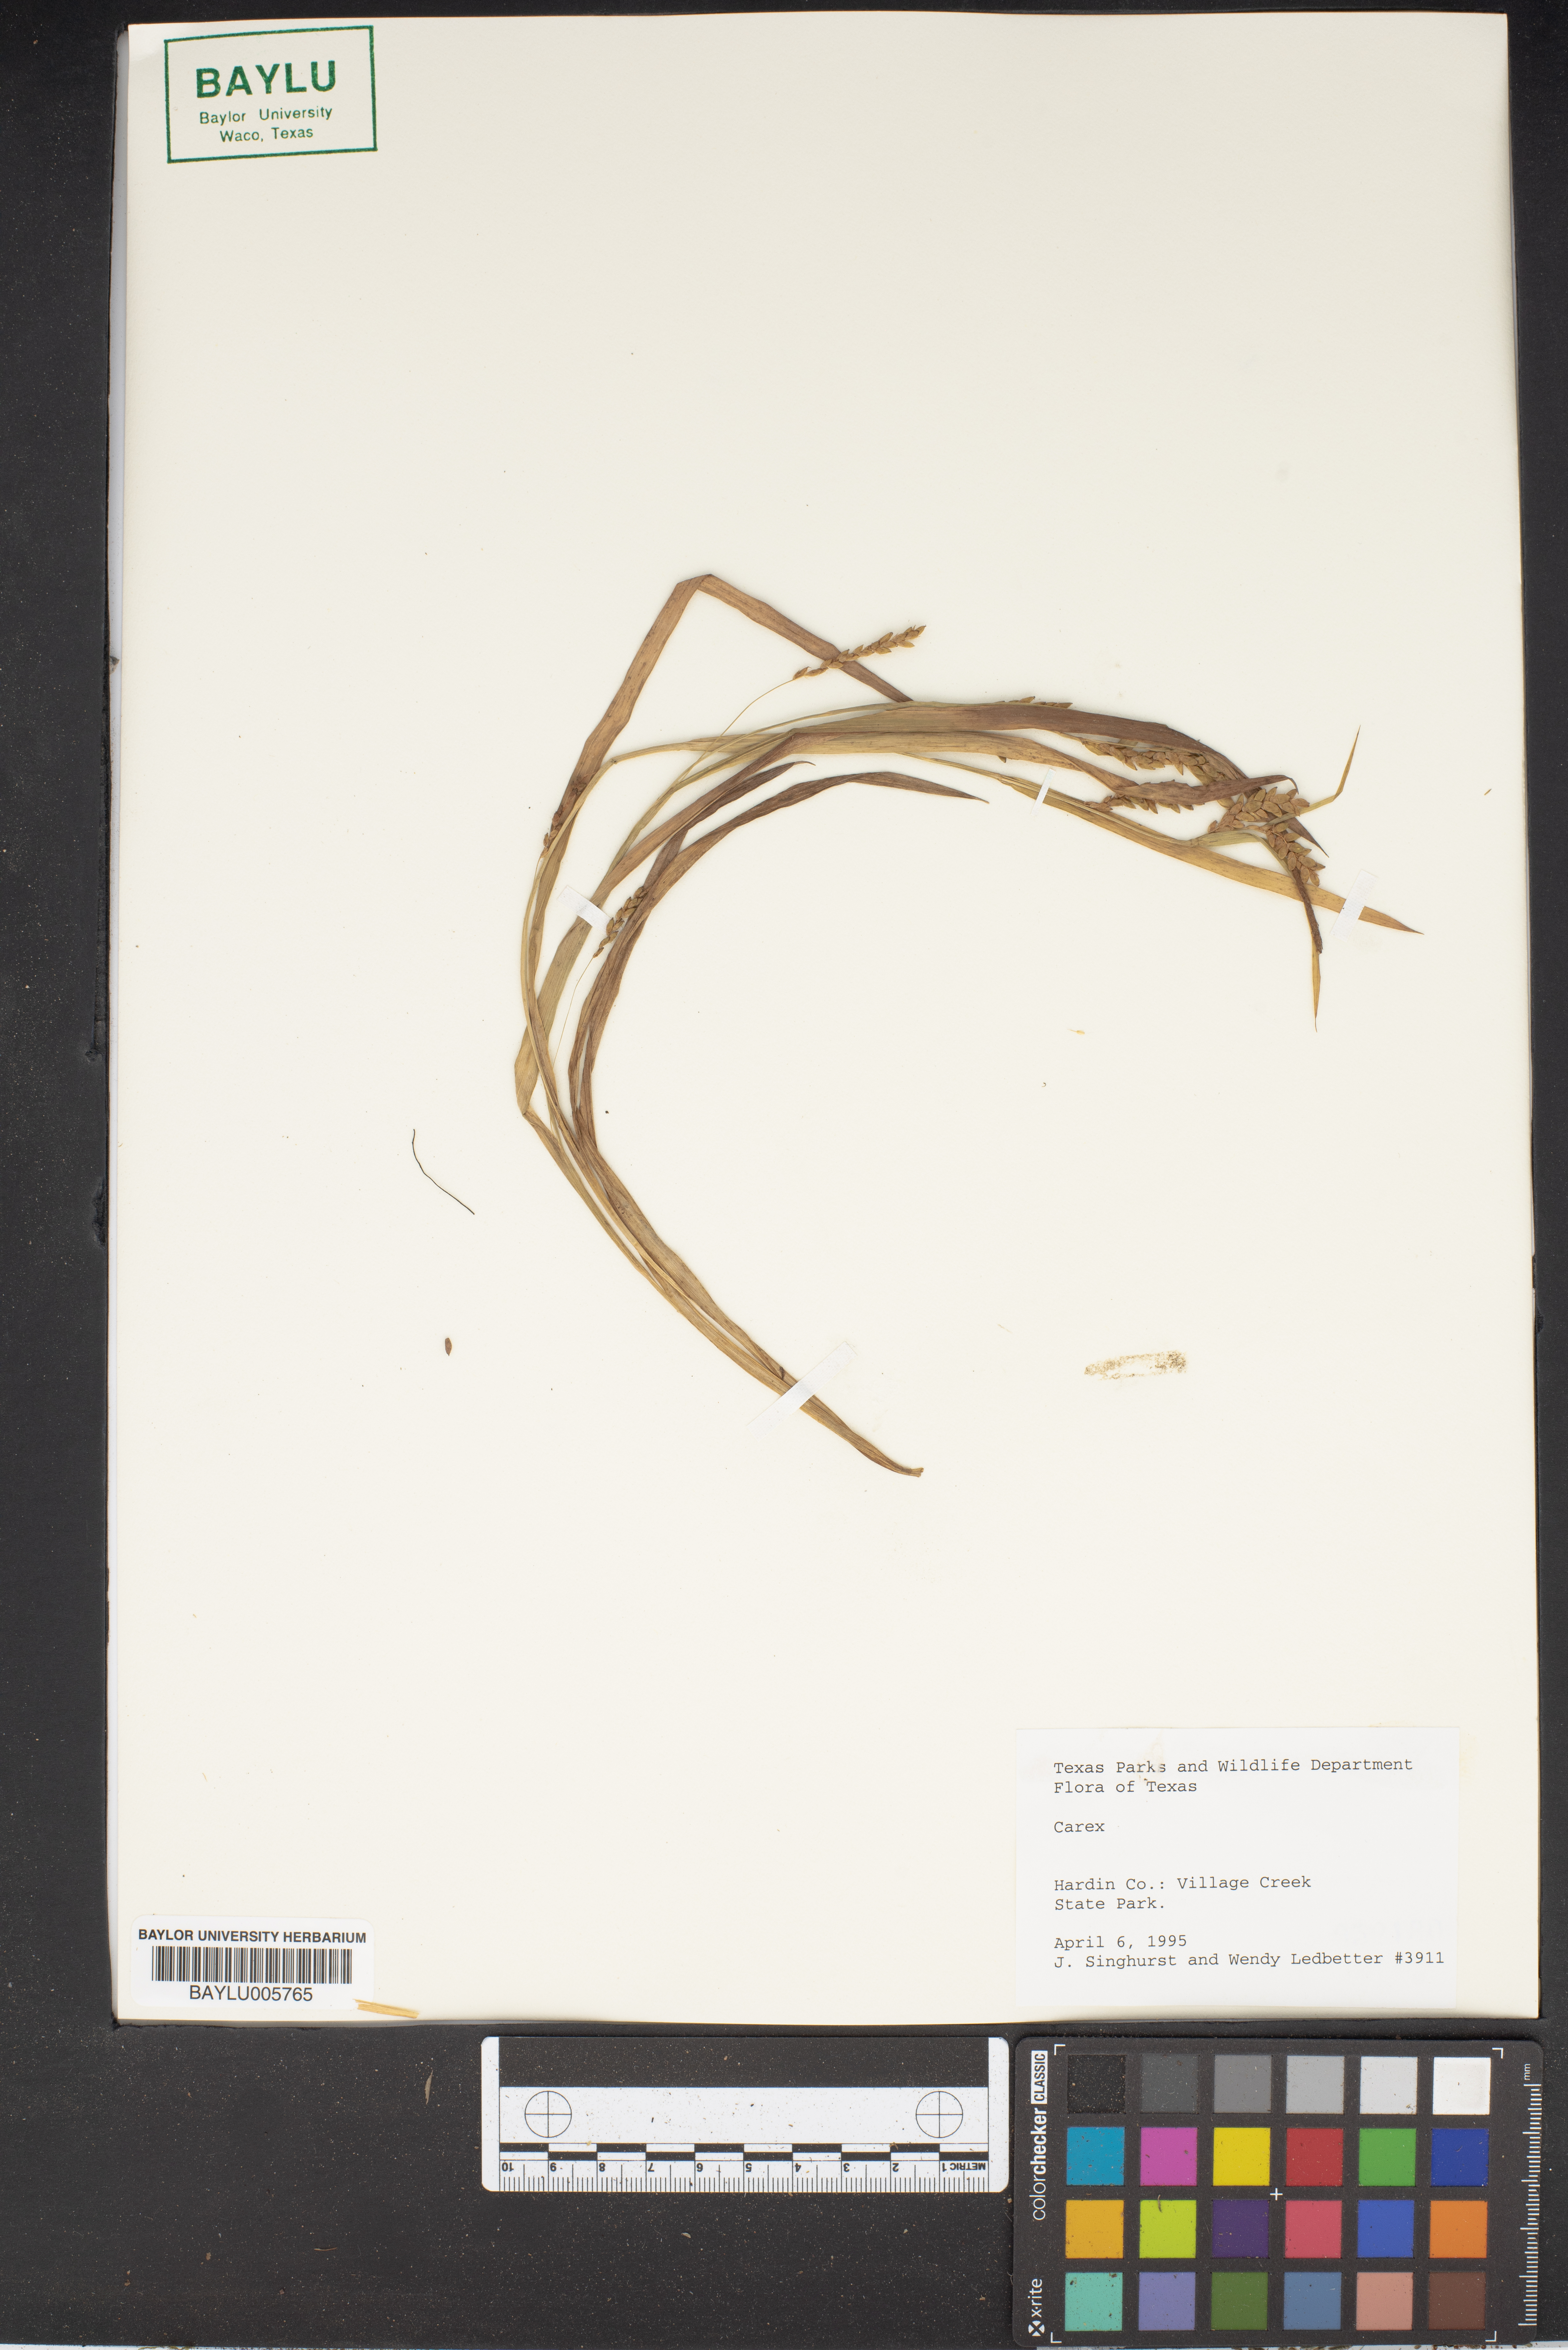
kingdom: Plantae
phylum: Tracheophyta
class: Liliopsida
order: Poales
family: Cyperaceae
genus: Carex
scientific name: Carex
